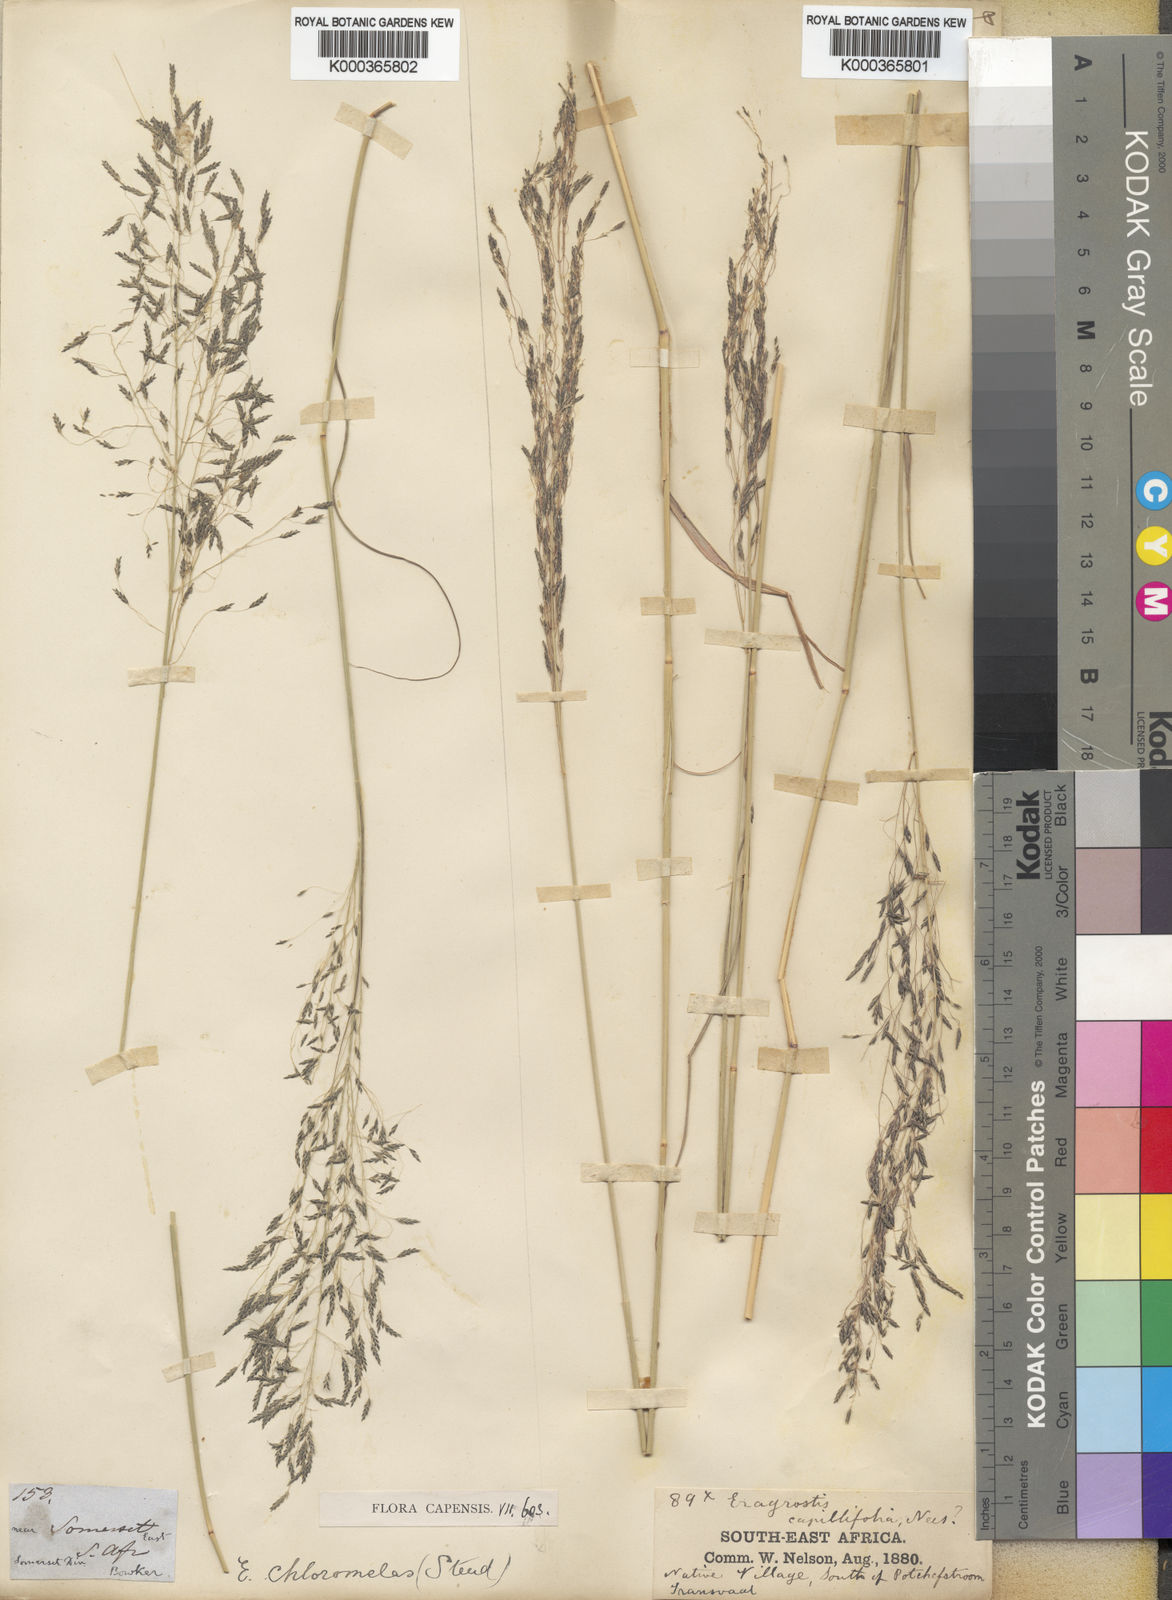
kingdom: Plantae
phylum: Tracheophyta
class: Liliopsida
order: Poales
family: Poaceae
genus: Eragrostis
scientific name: Eragrostis curvula
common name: African love-grass
